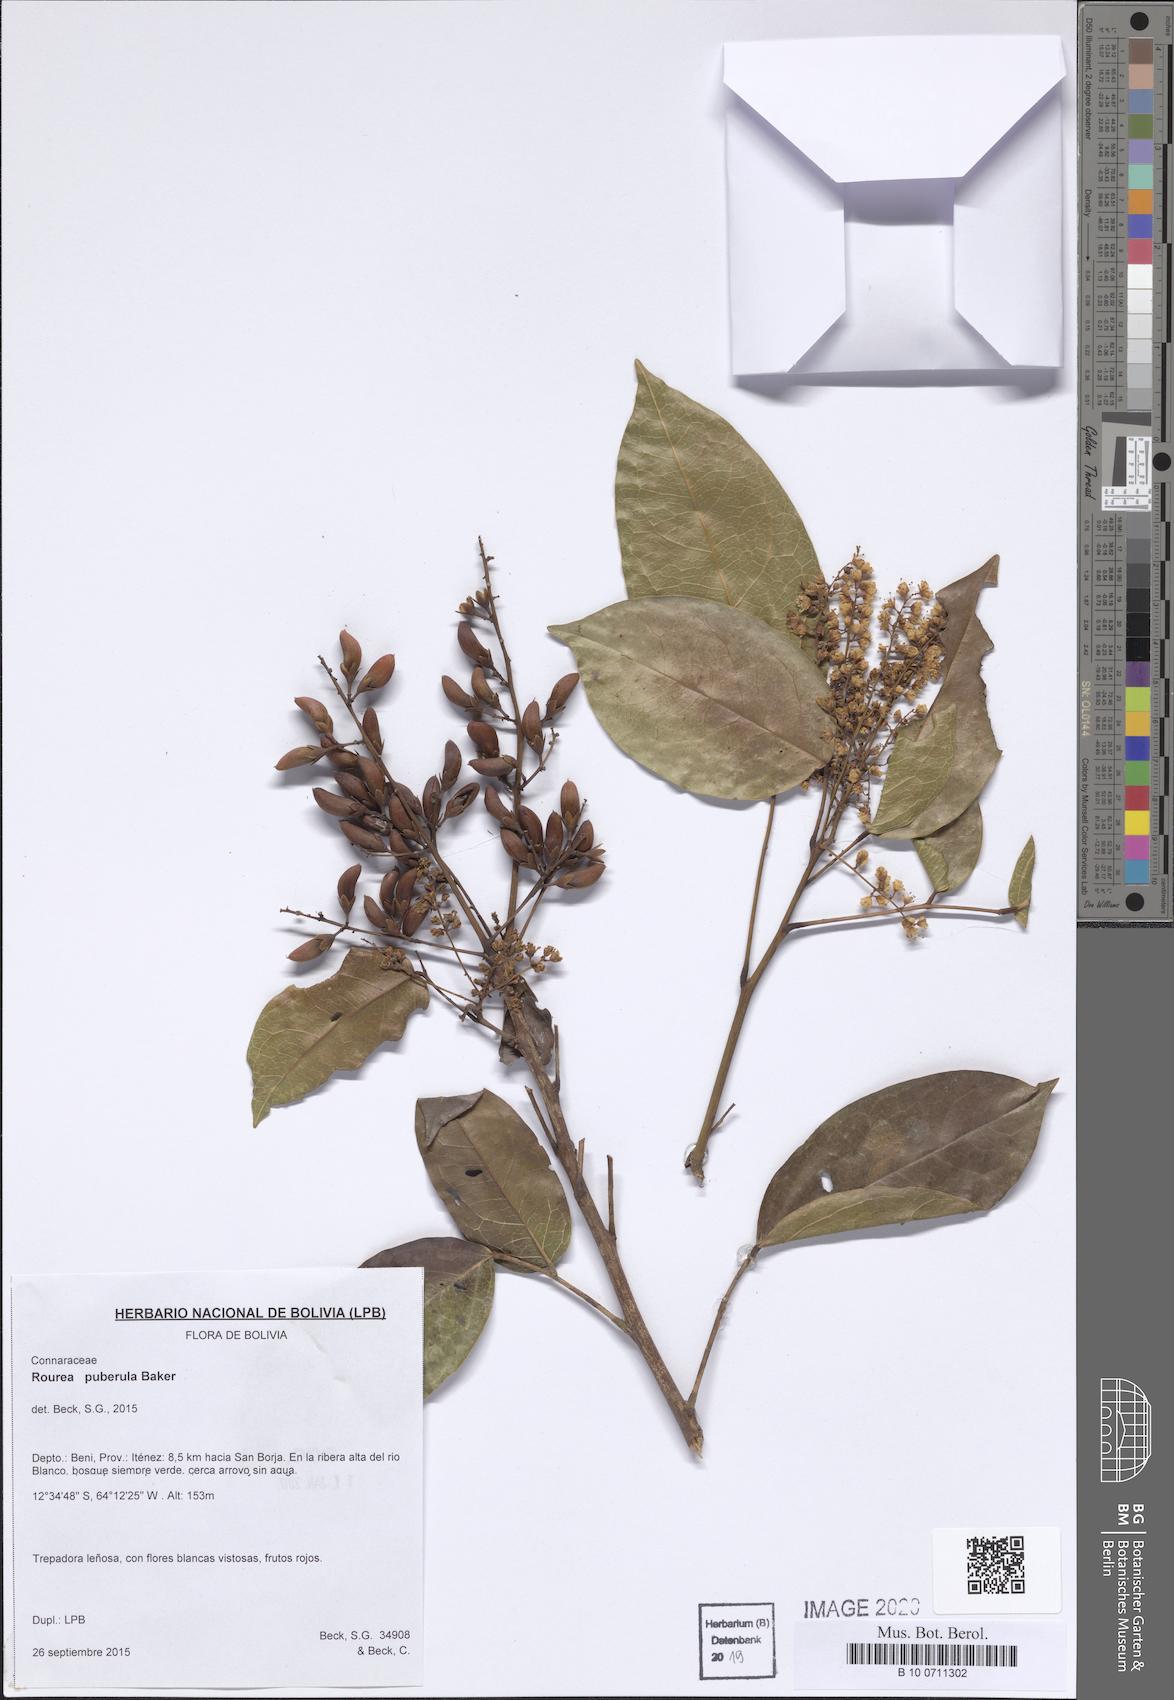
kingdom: Plantae
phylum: Tracheophyta
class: Magnoliopsida
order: Oxalidales
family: Connaraceae
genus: Rourea
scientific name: Rourea puberula
